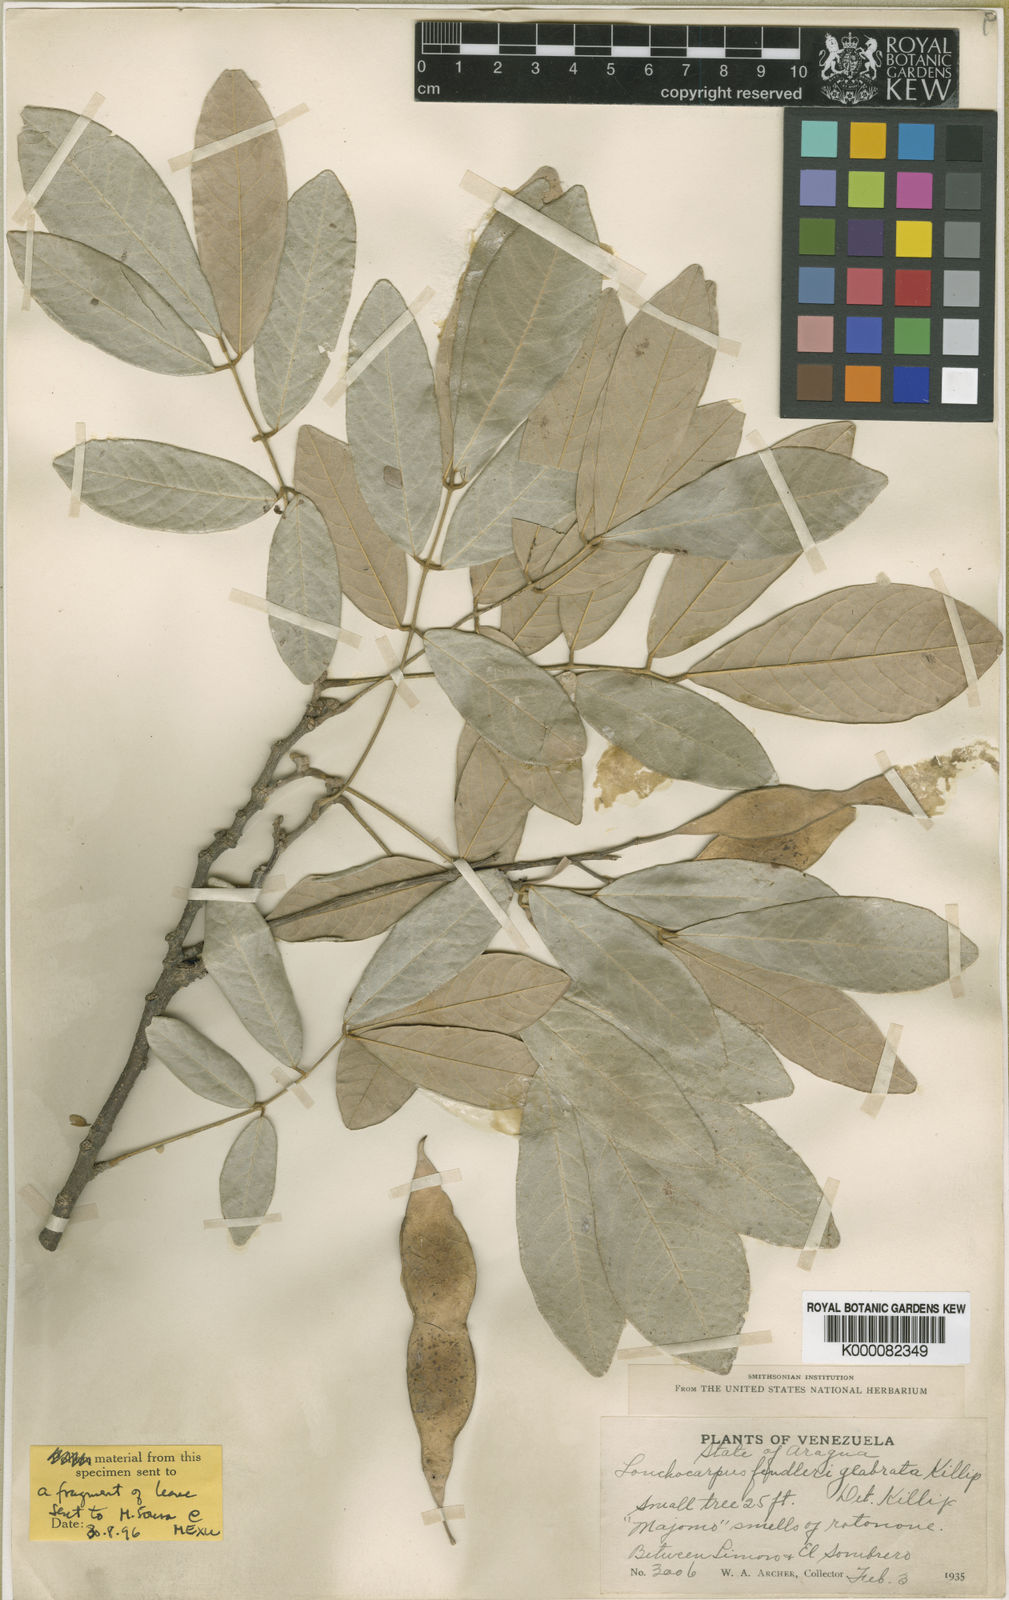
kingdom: Plantae
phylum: Tracheophyta
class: Magnoliopsida
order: Fabales
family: Fabaceae
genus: Lonchocarpus
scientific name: Lonchocarpus
